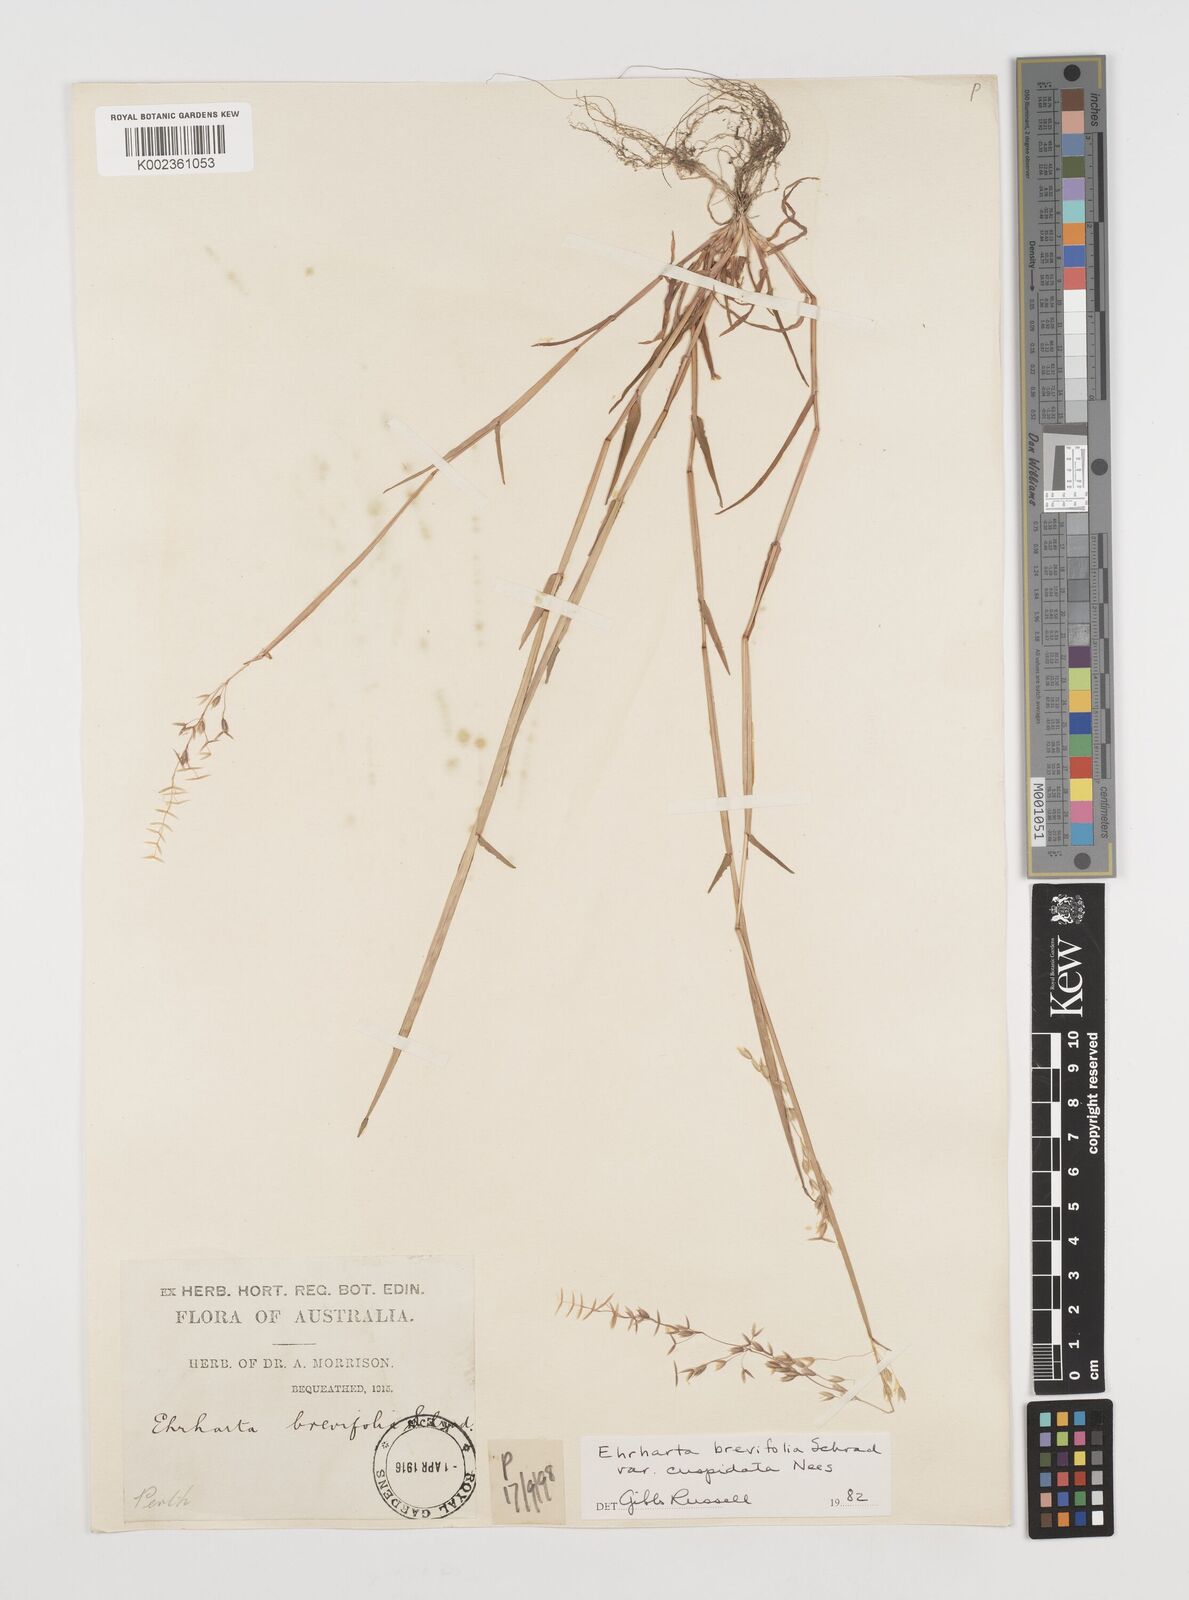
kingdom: Plantae
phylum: Tracheophyta
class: Liliopsida
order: Poales
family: Poaceae
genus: Ehrharta
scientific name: Ehrharta brevifolia
